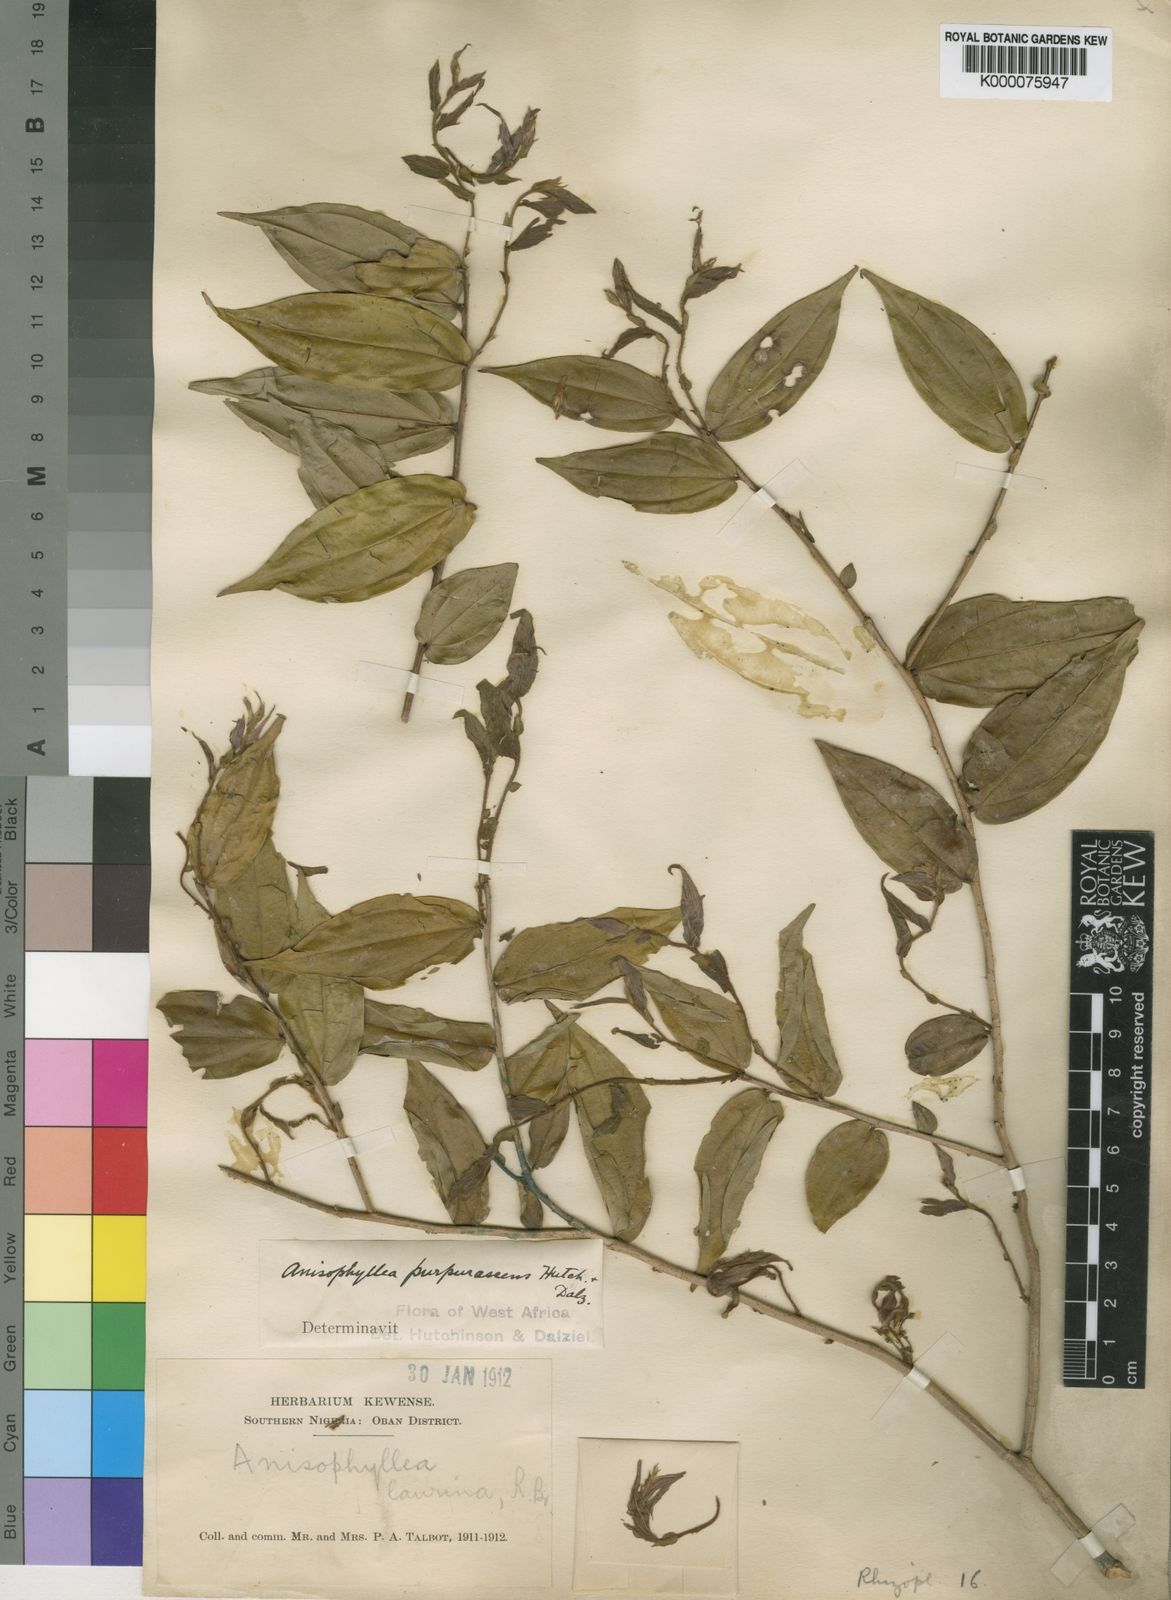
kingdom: Plantae
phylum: Tracheophyta
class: Magnoliopsida
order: Cucurbitales
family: Anisophylleaceae
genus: Anisophyllea
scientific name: Anisophyllea purpurascens
